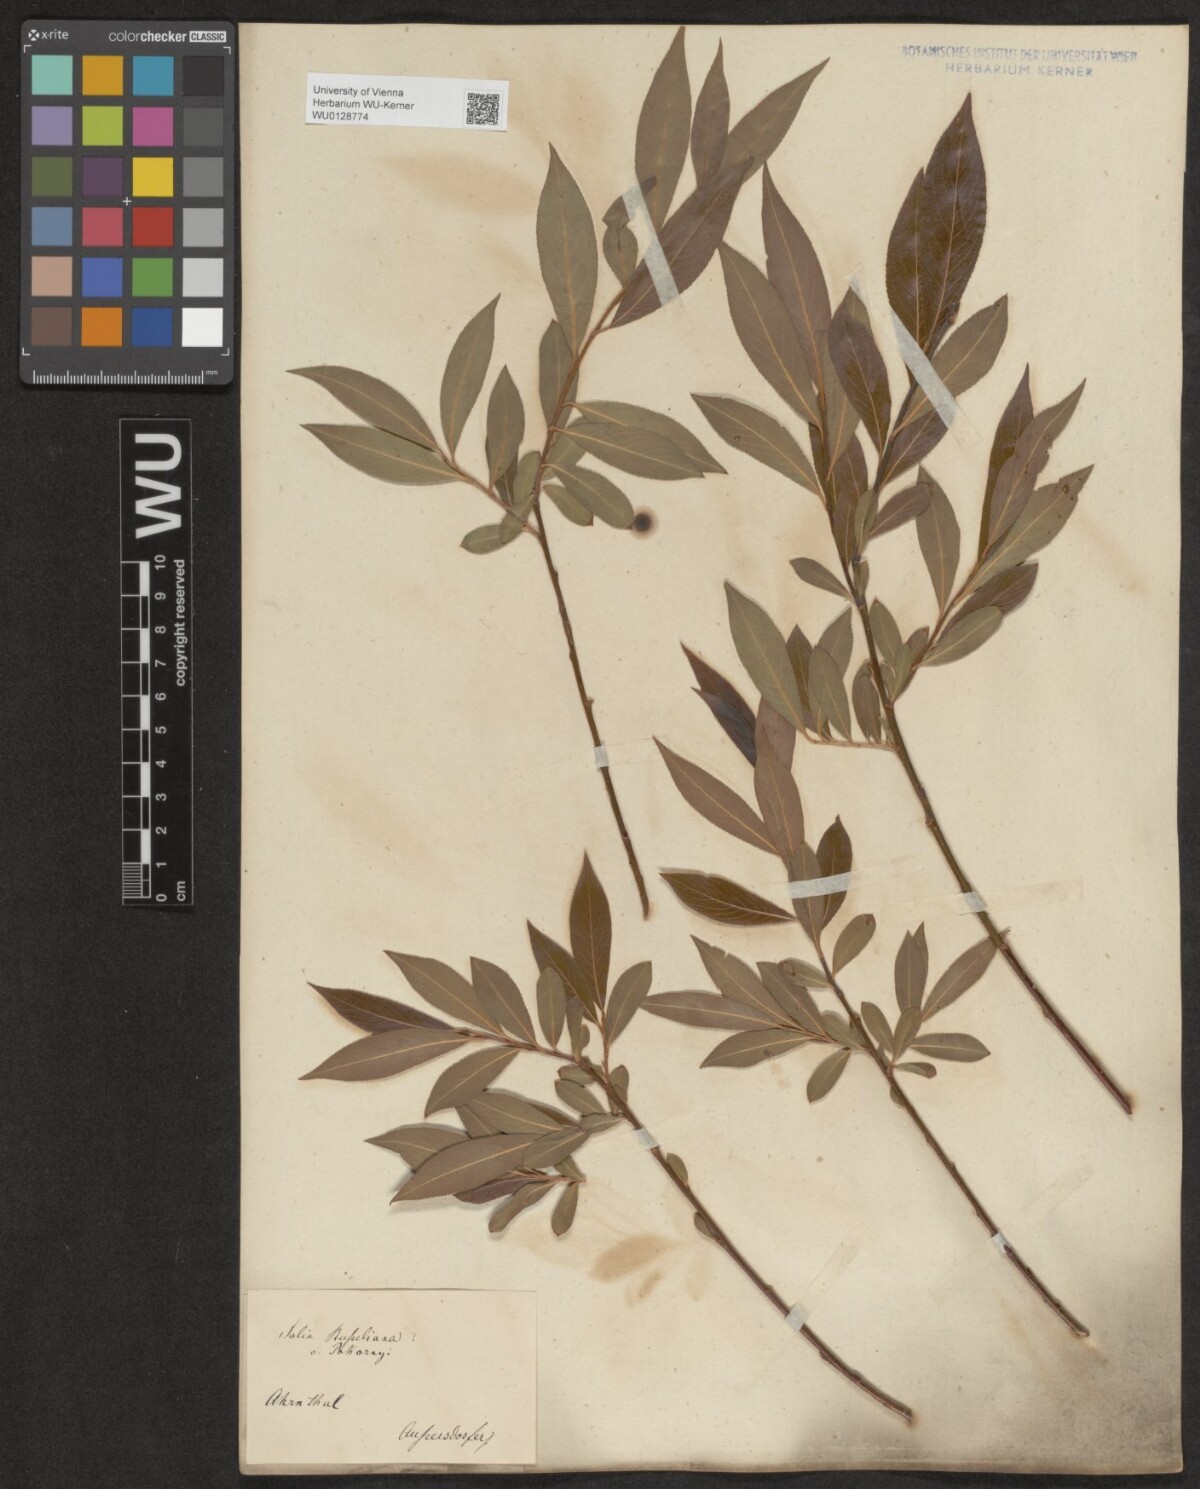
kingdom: Plantae
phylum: Tracheophyta
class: Magnoliopsida
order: Malpighiales
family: Salicaceae
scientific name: Salicaceae
